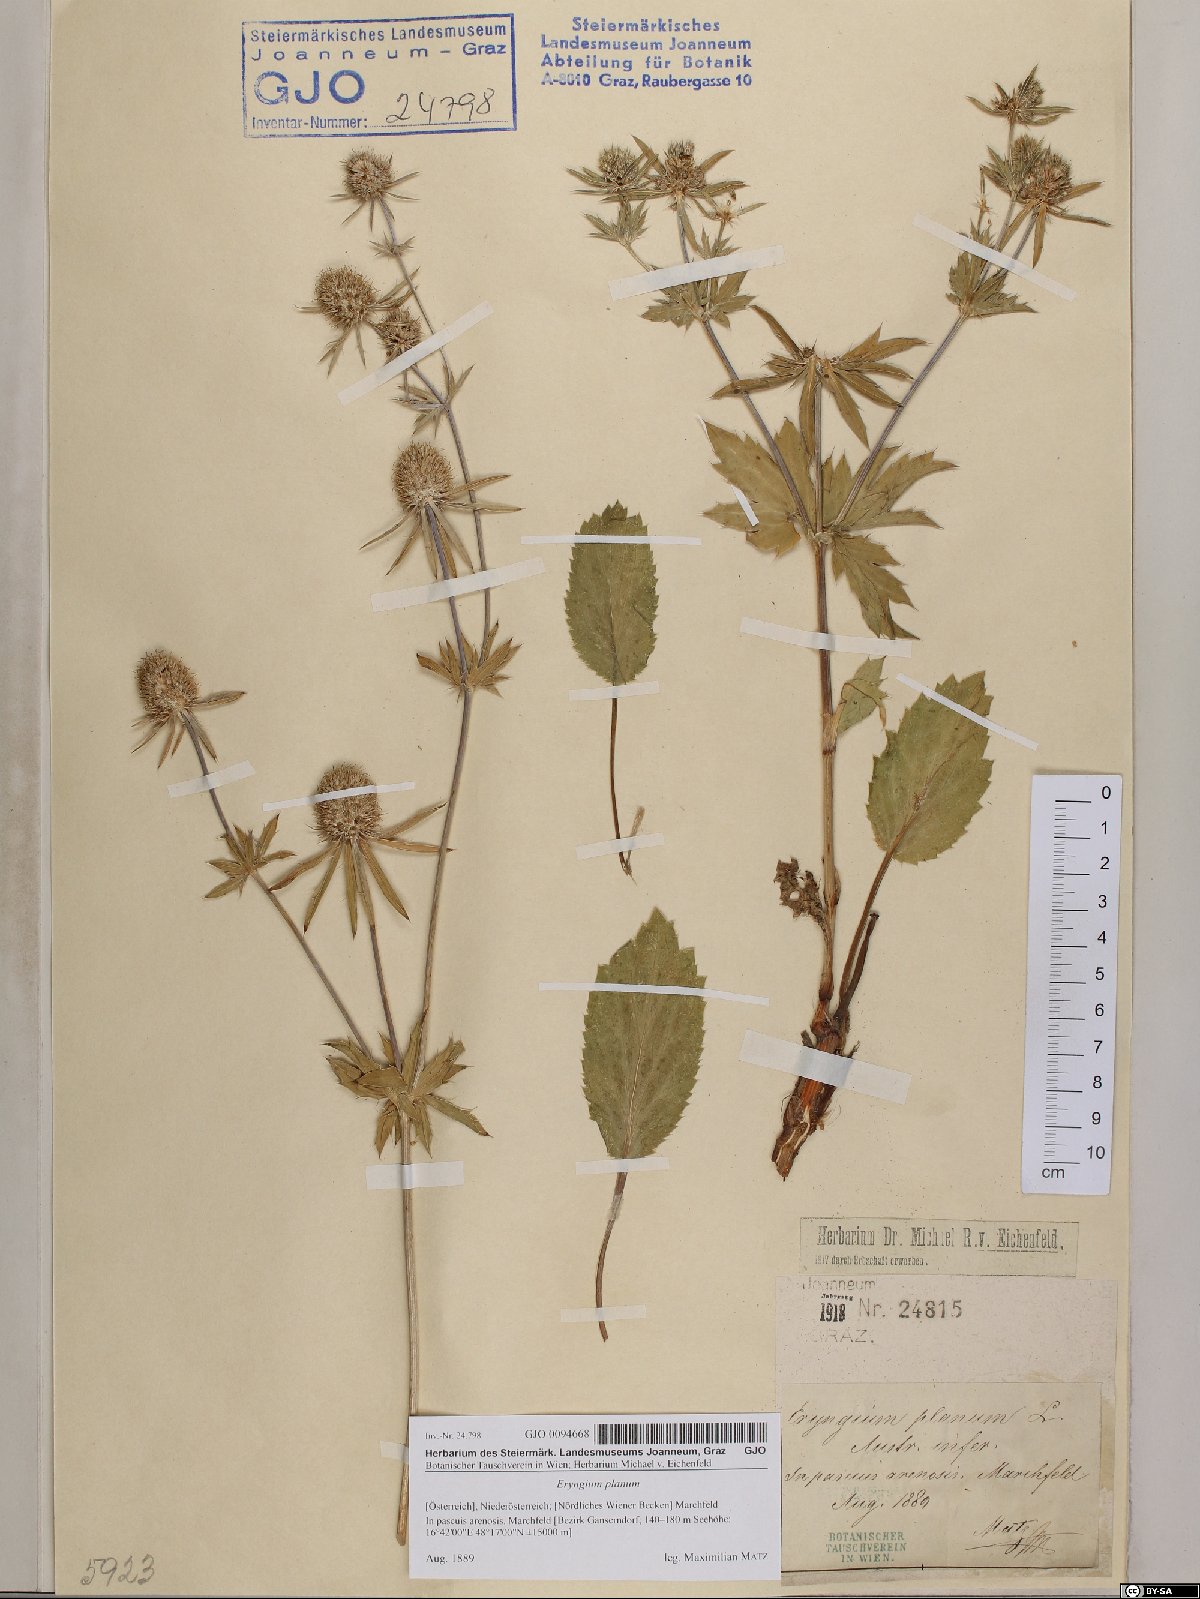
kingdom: Plantae
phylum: Tracheophyta
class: Magnoliopsida
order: Apiales
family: Apiaceae
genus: Eryngium
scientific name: Eryngium planum
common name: Blue eryngo
